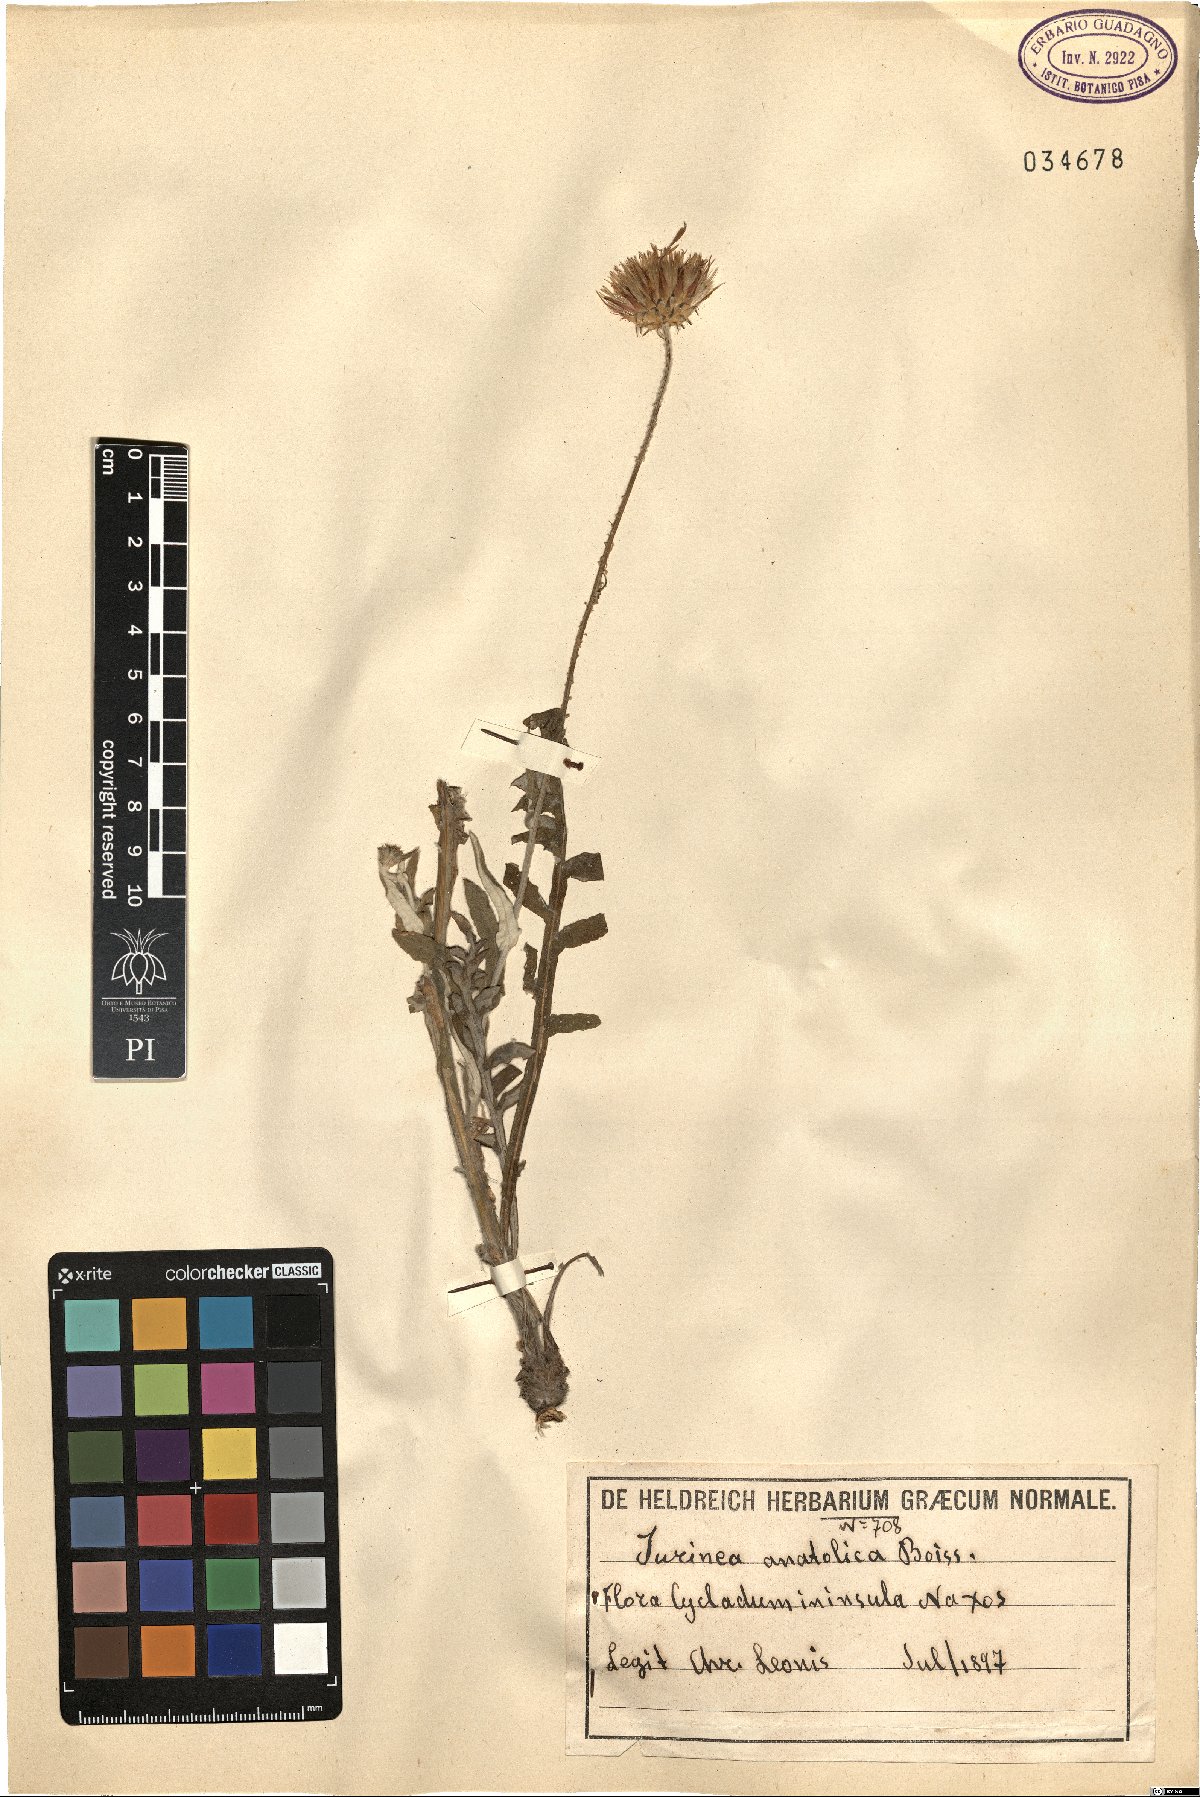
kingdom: Plantae
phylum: Tracheophyta
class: Magnoliopsida
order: Asterales
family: Asteraceae
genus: Jurinea
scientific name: Jurinea consanguinea
